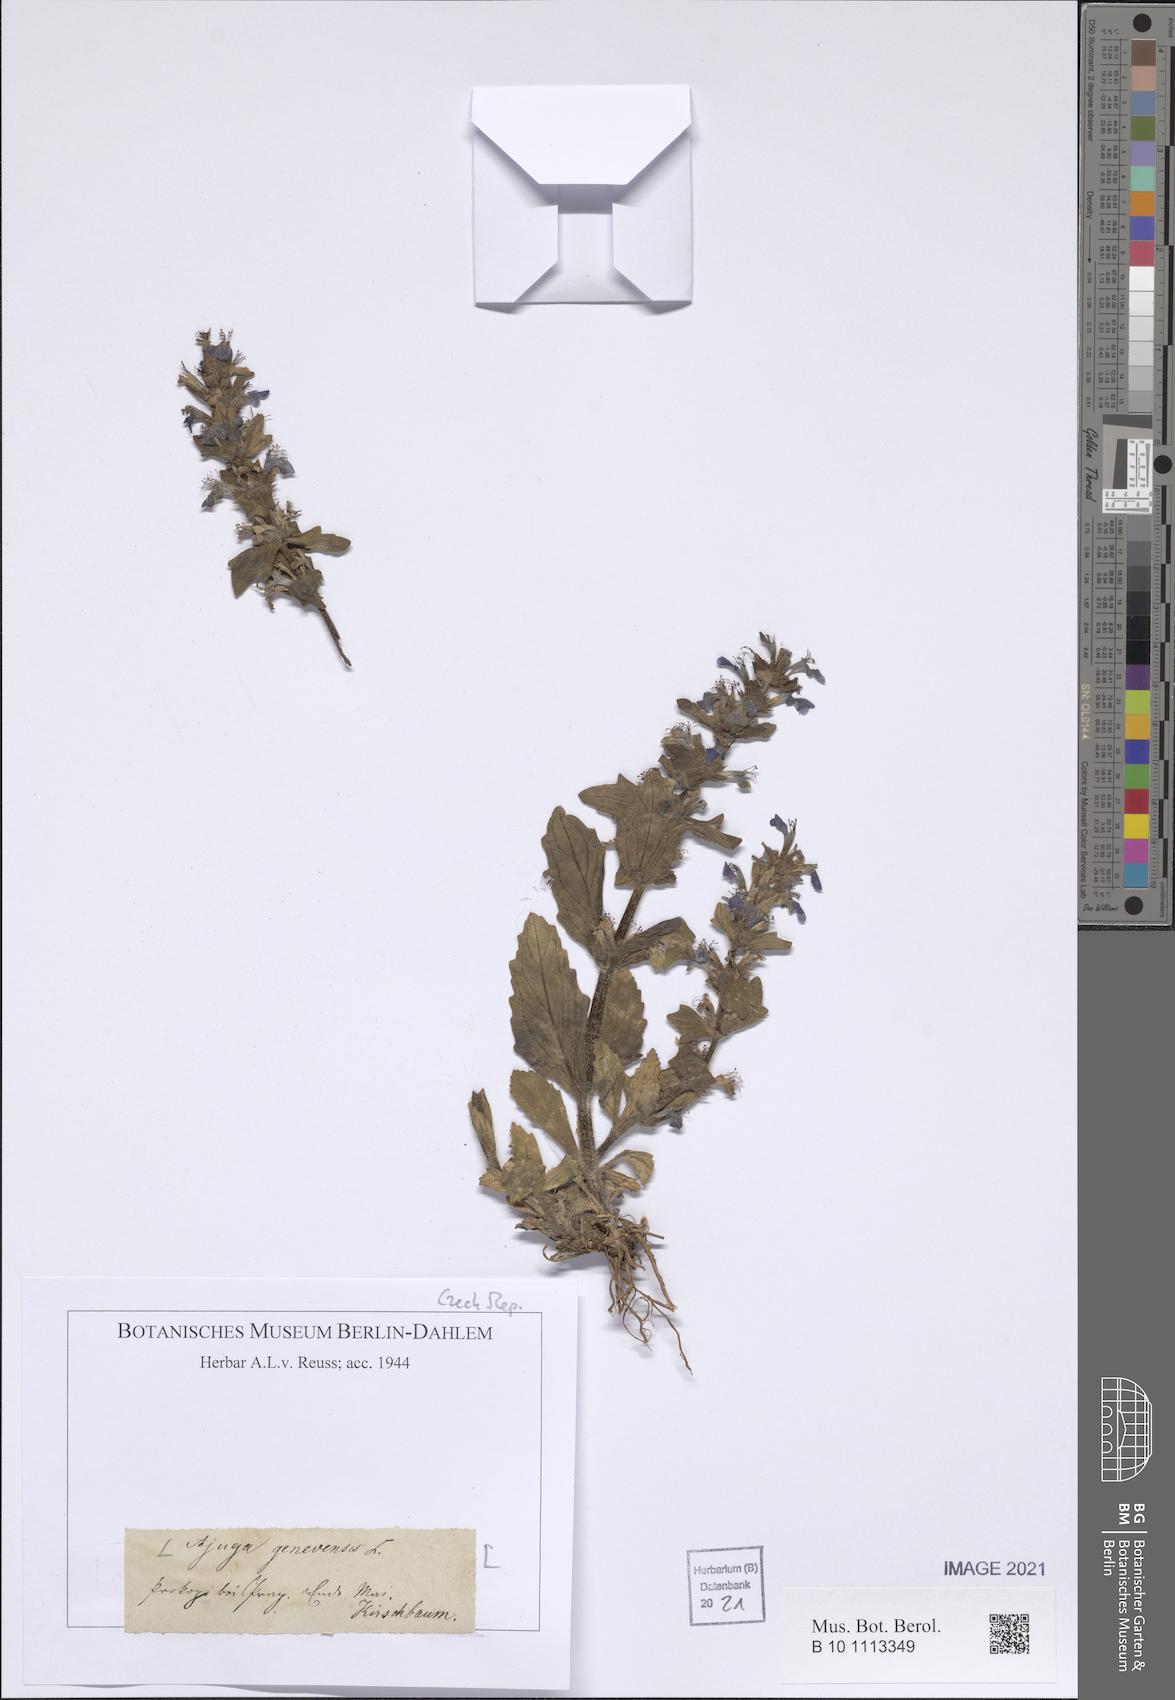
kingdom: Plantae
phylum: Tracheophyta
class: Magnoliopsida
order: Lamiales
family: Lamiaceae
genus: Ajuga
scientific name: Ajuga genevensis
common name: Blue bugle
